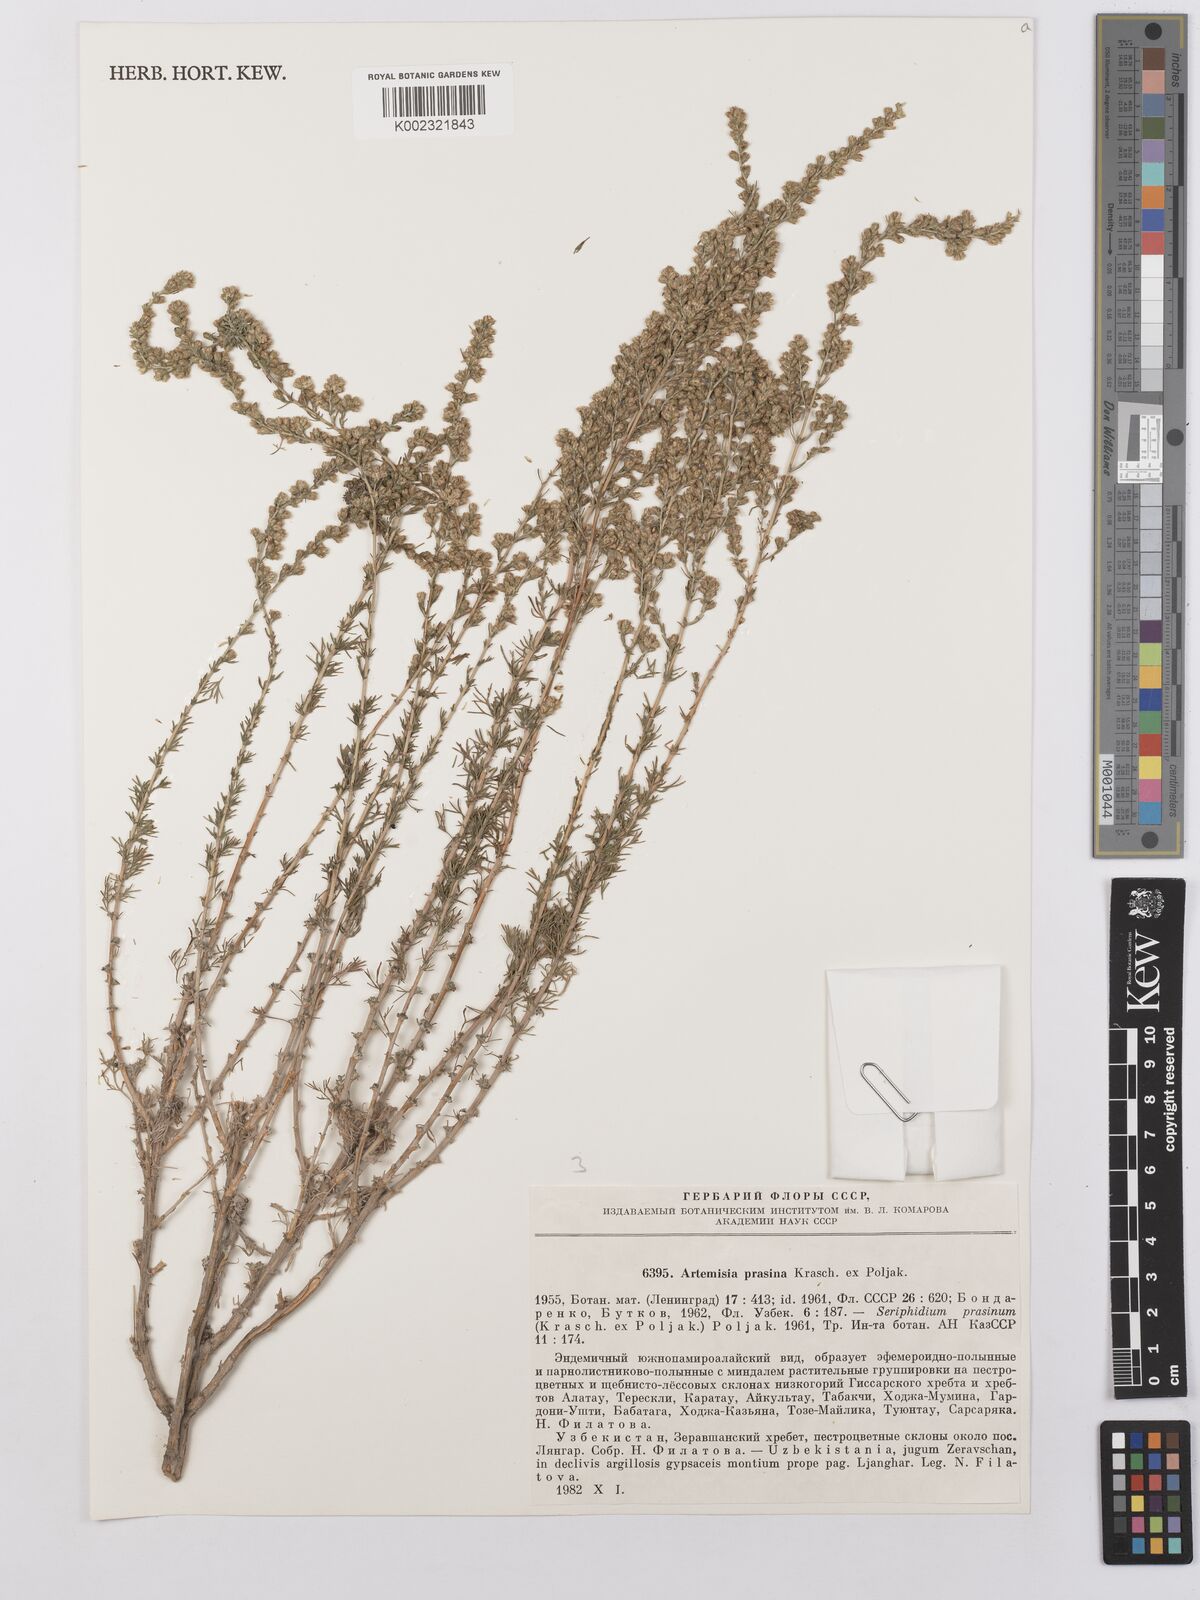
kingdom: Plantae
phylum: Tracheophyta
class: Magnoliopsida
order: Asterales
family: Asteraceae
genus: Artemisia
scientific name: Artemisia albicaulis
